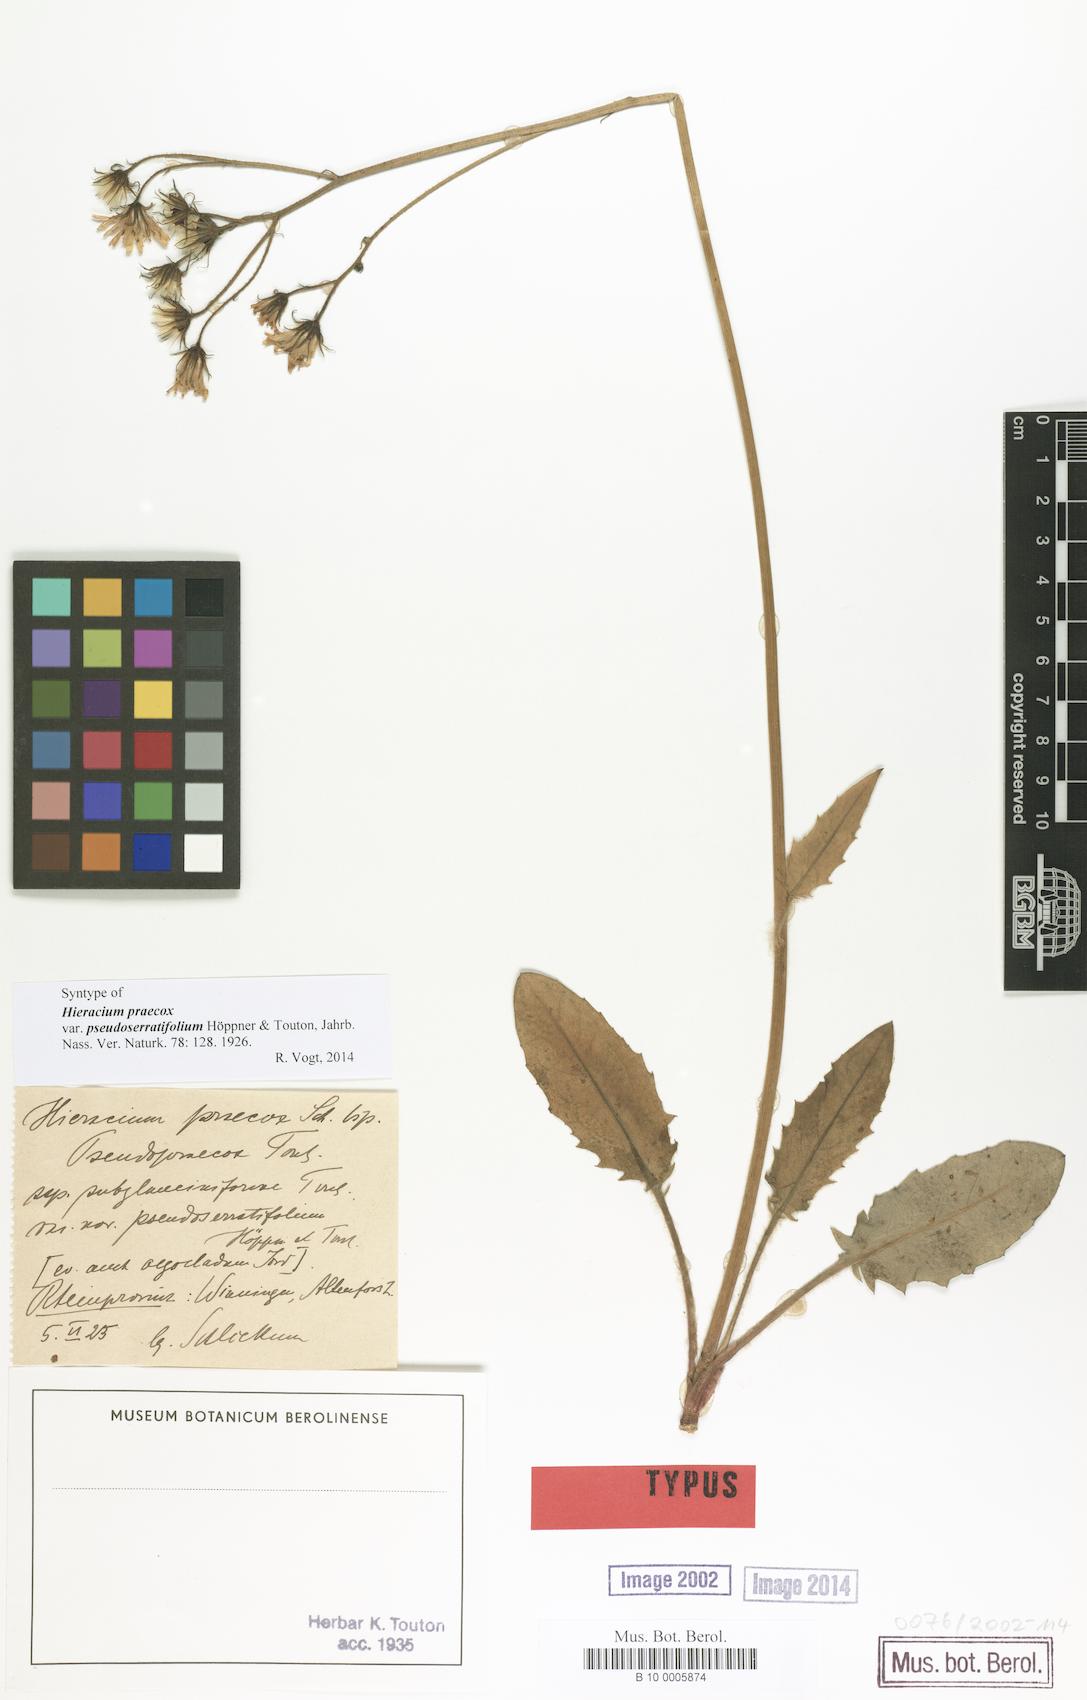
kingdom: Plantae
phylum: Tracheophyta
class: Magnoliopsida
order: Asterales
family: Asteraceae
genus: Hieracium
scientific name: Hieracium praecox
